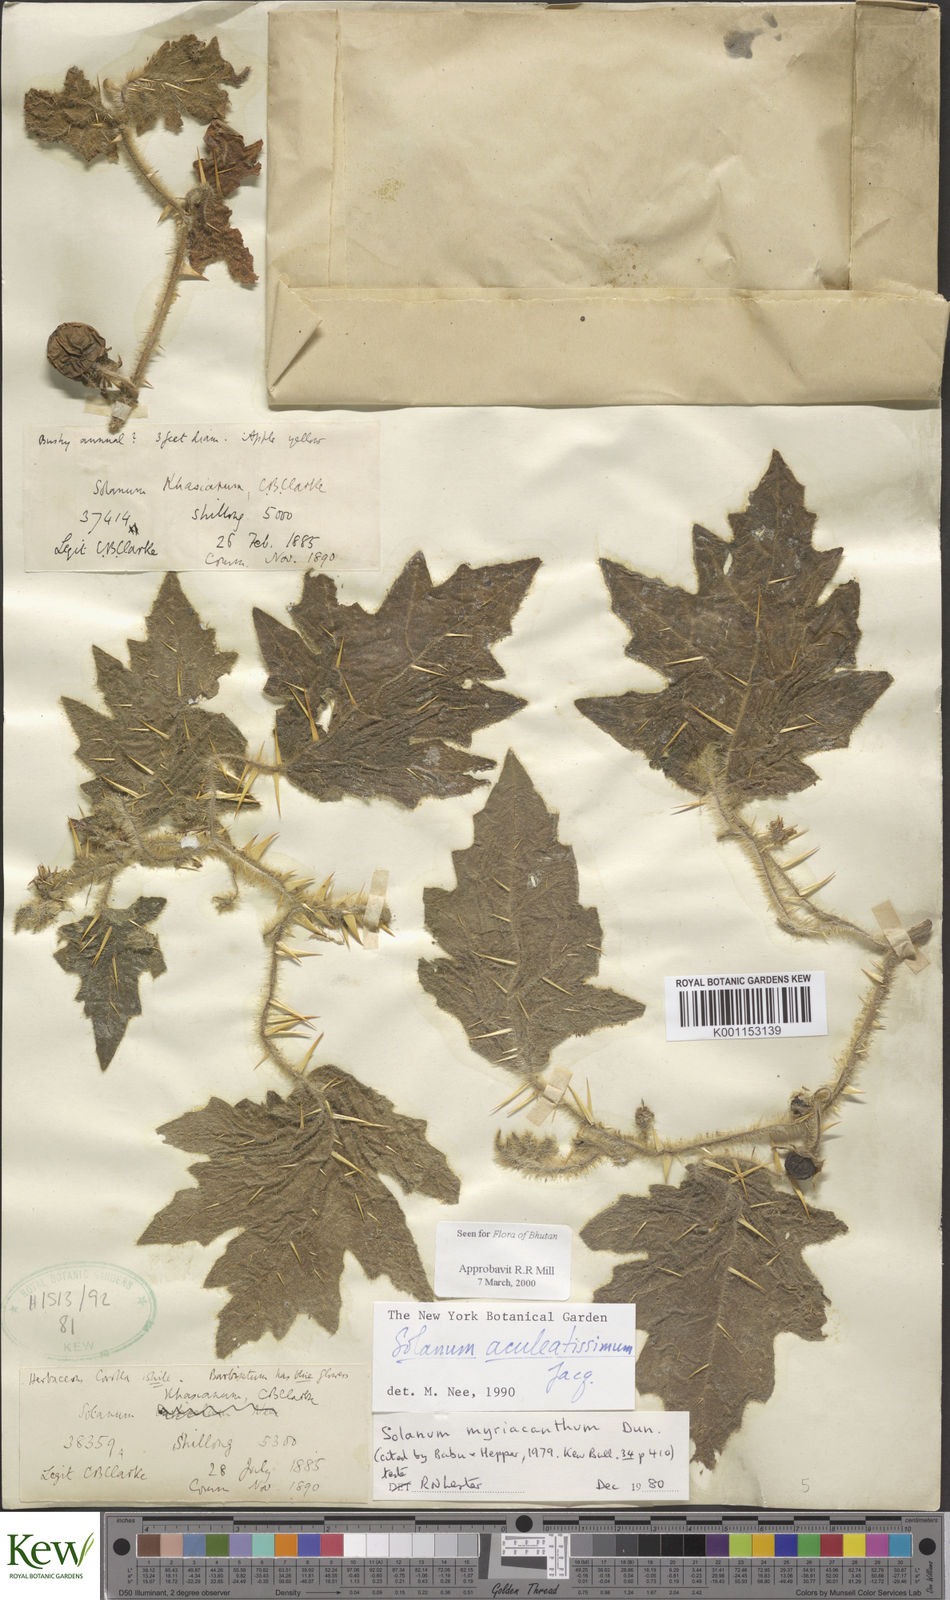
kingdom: Plantae
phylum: Tracheophyta
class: Magnoliopsida
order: Solanales
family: Solanaceae
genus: Solanum
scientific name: Solanum aculeatissimum
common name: Dutch eggplant
